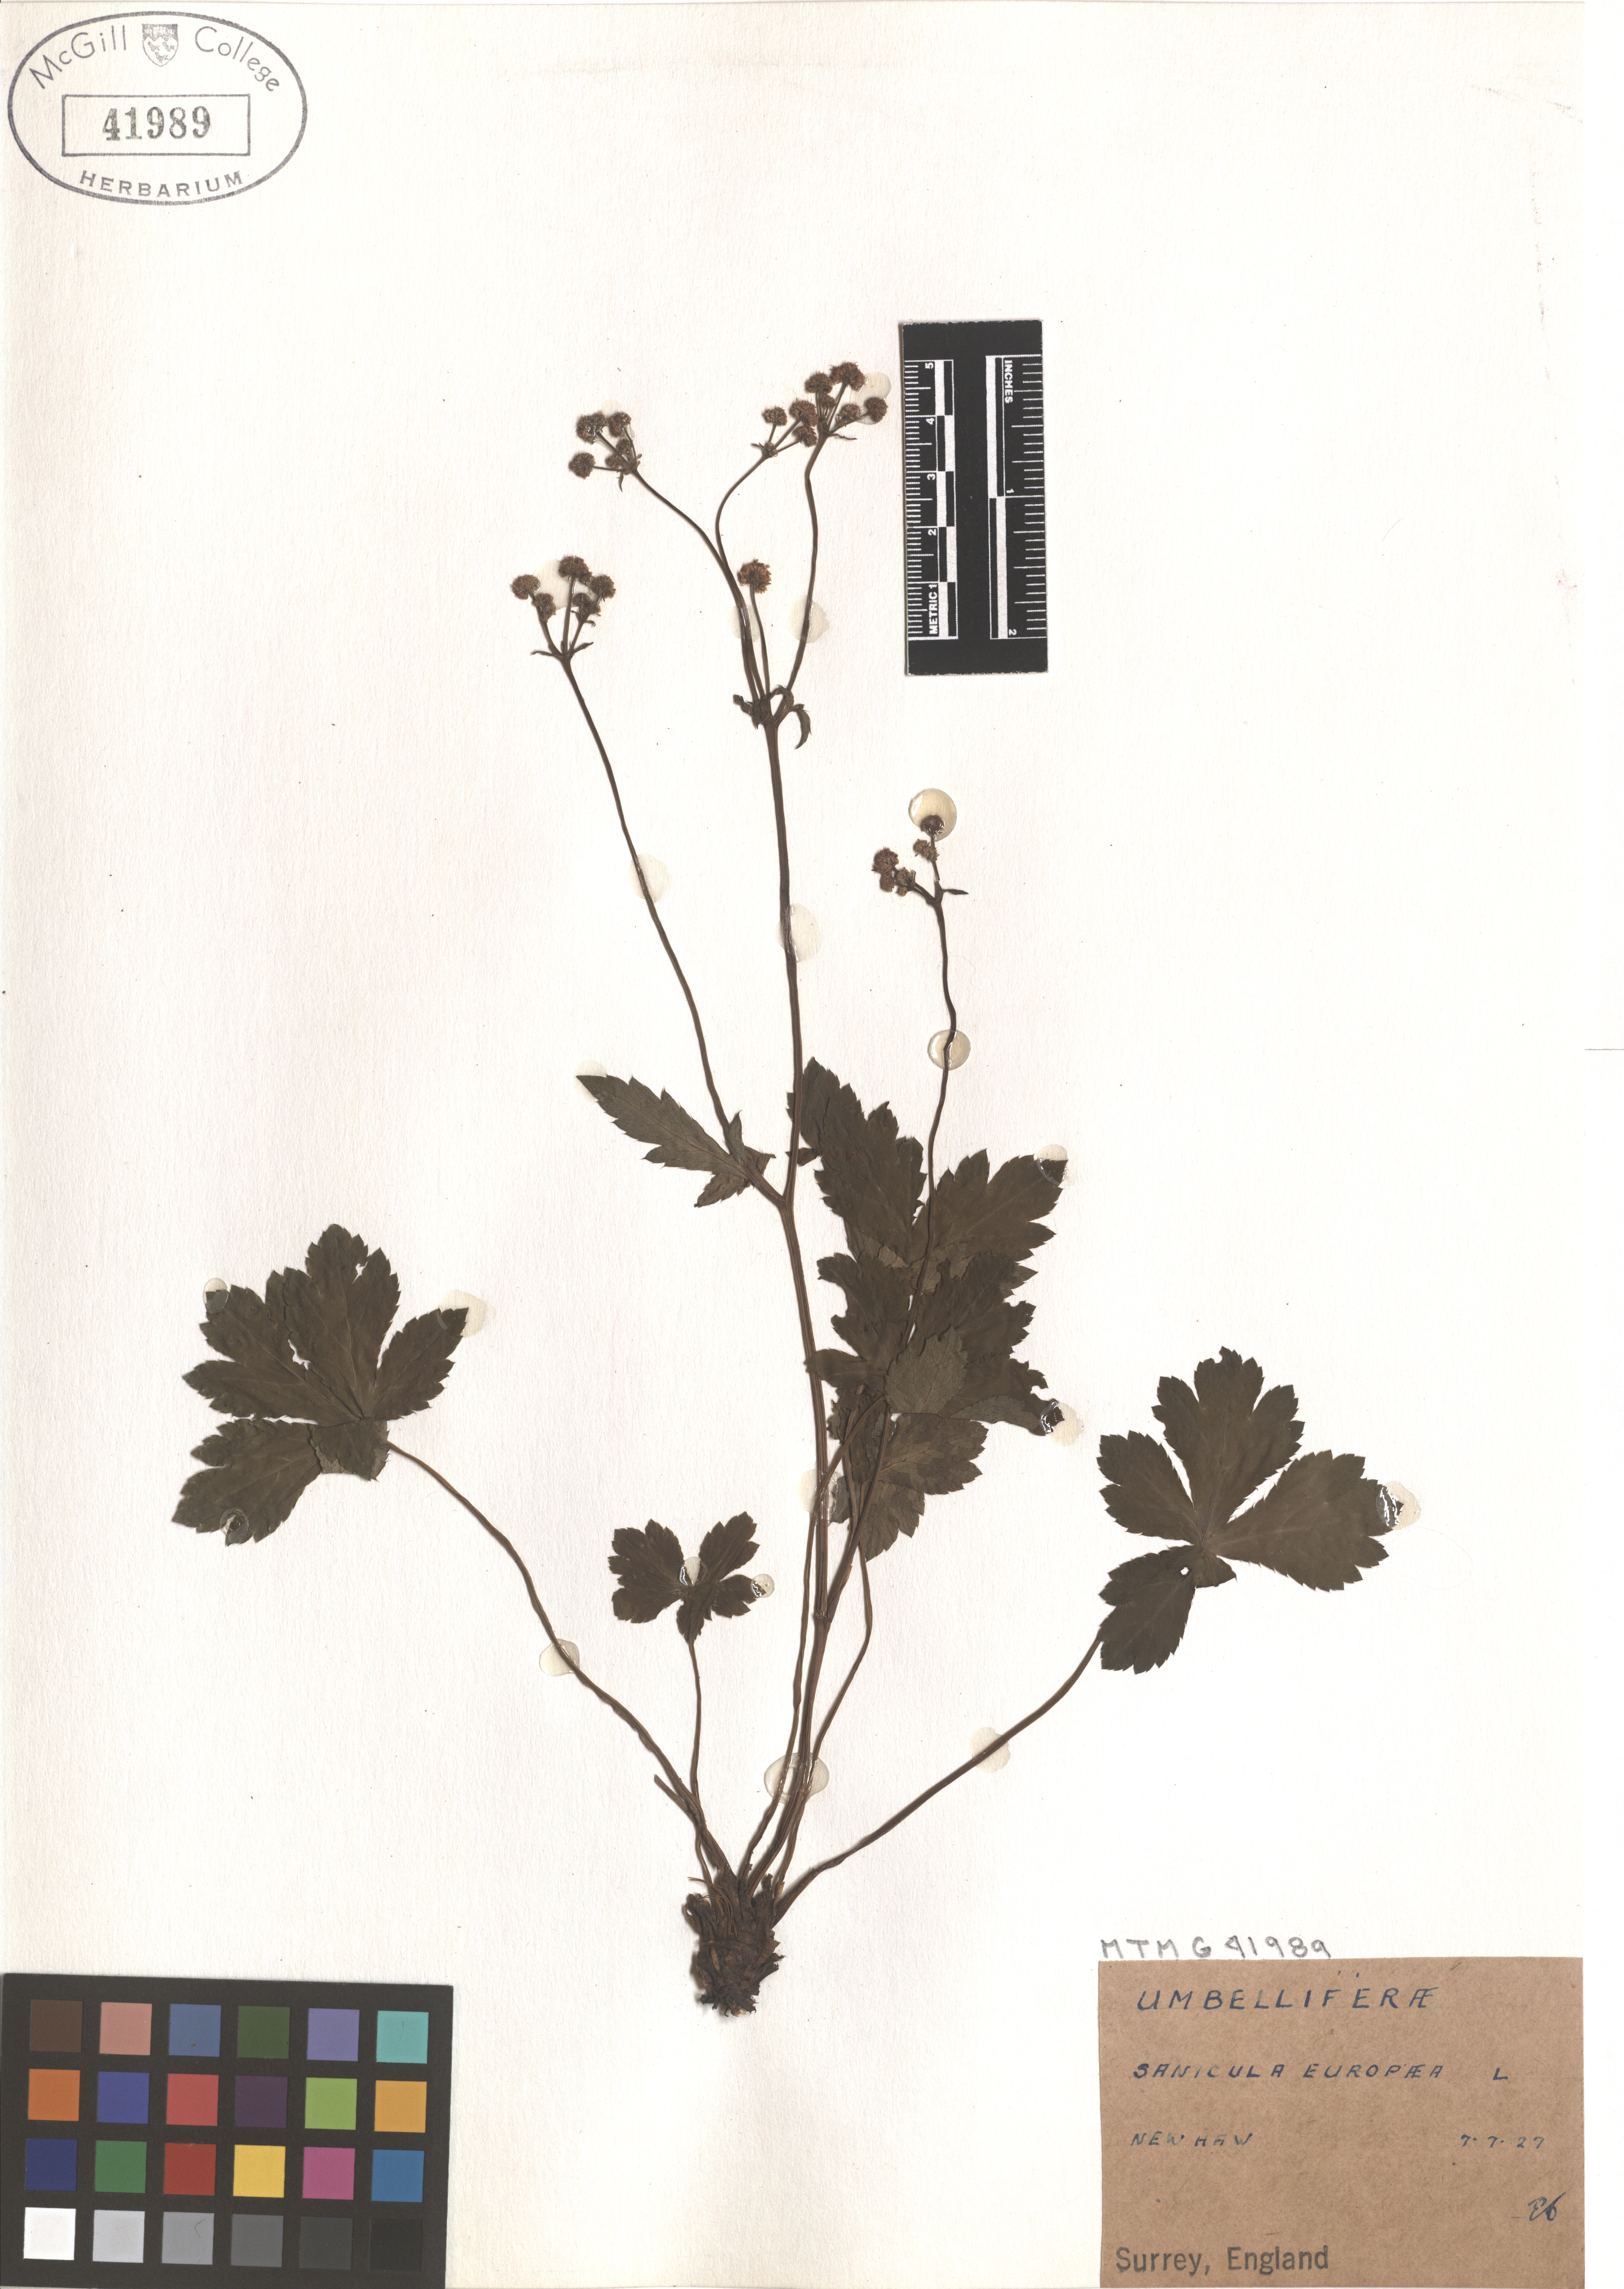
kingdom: Plantae
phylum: Tracheophyta
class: Magnoliopsida
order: Apiales
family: Apiaceae
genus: Sanicula
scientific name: Sanicula elata
